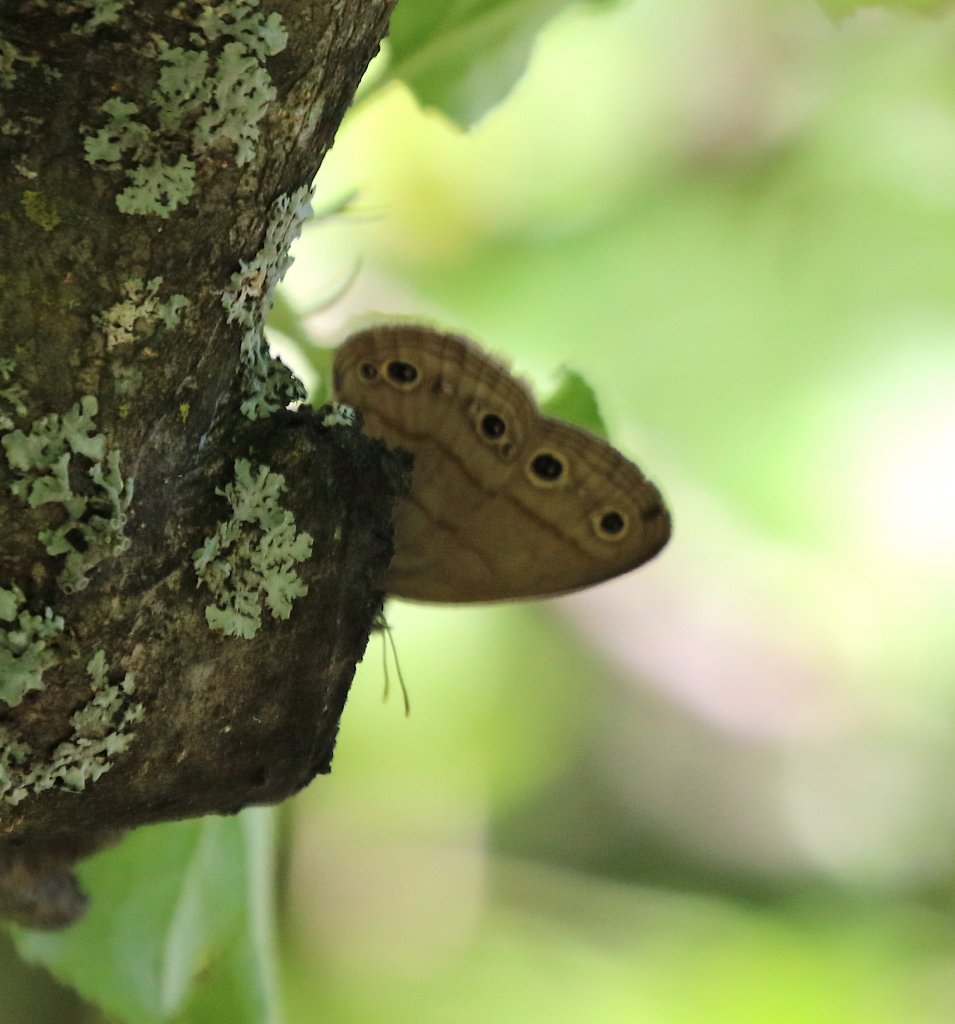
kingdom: Animalia
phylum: Arthropoda
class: Insecta
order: Lepidoptera
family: Nymphalidae
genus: Euptychia
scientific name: Euptychia cymela
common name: Little Wood Satyr
